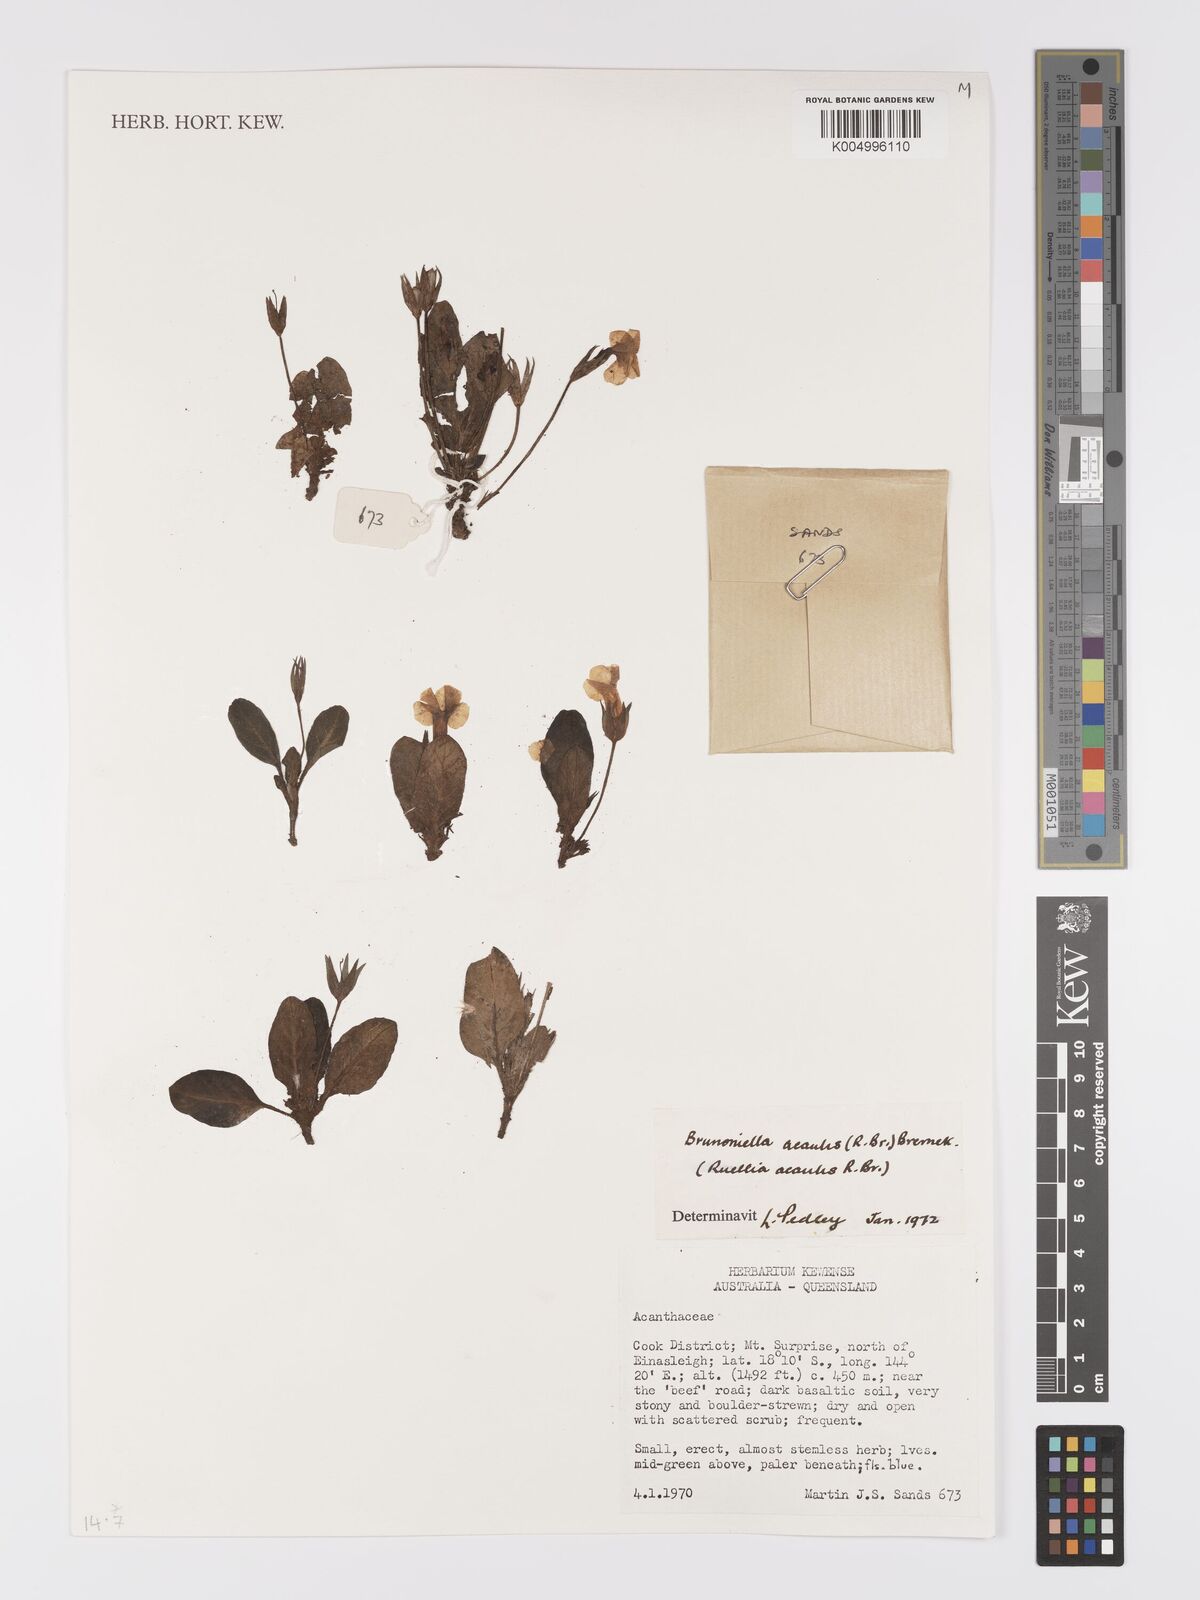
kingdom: Plantae
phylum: Tracheophyta
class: Magnoliopsida
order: Lamiales
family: Acanthaceae
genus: Ruellia
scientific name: Ruellia
